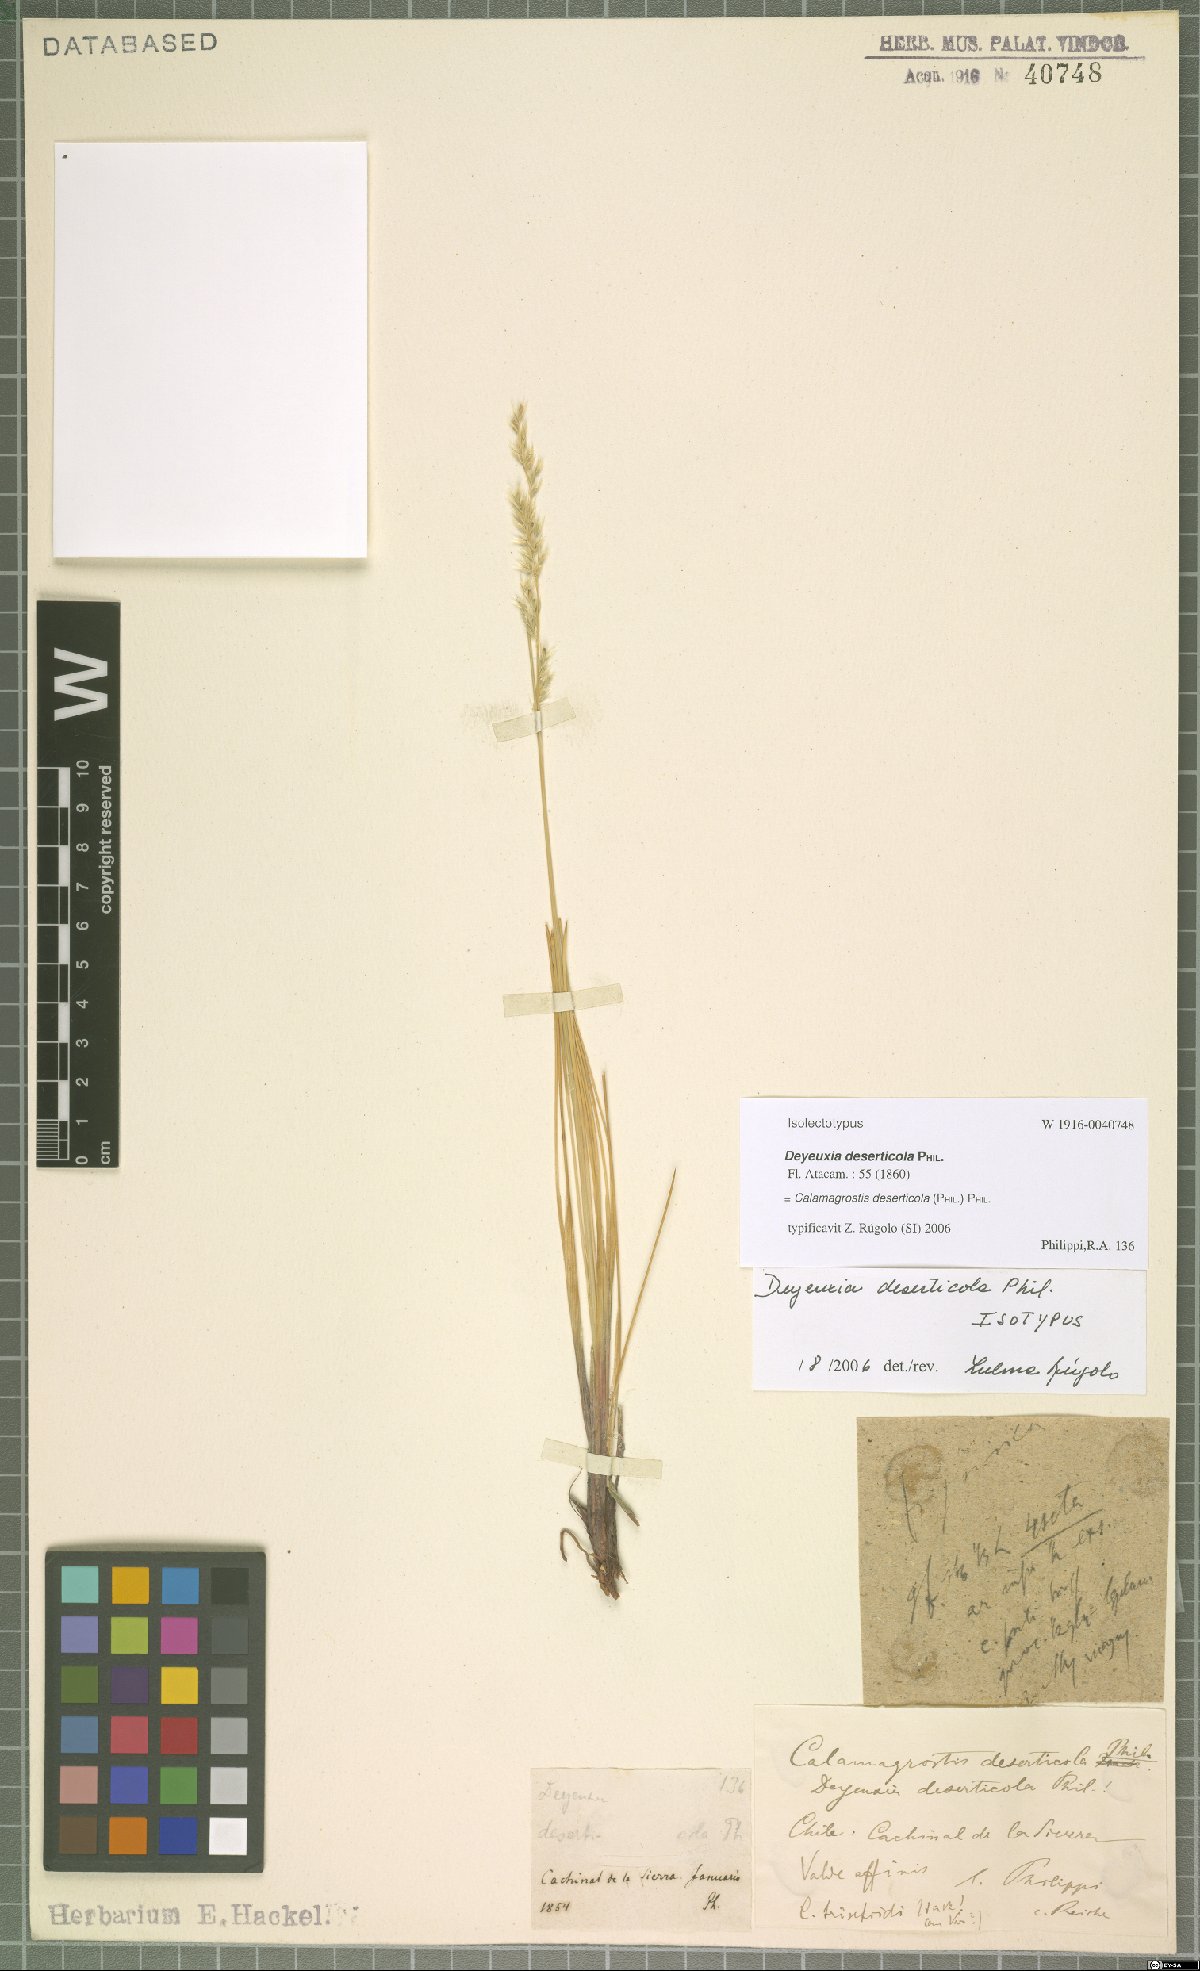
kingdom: Plantae
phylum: Tracheophyta
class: Liliopsida
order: Poales
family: Poaceae
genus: Cinnagrostis
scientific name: Cinnagrostis deserticola
